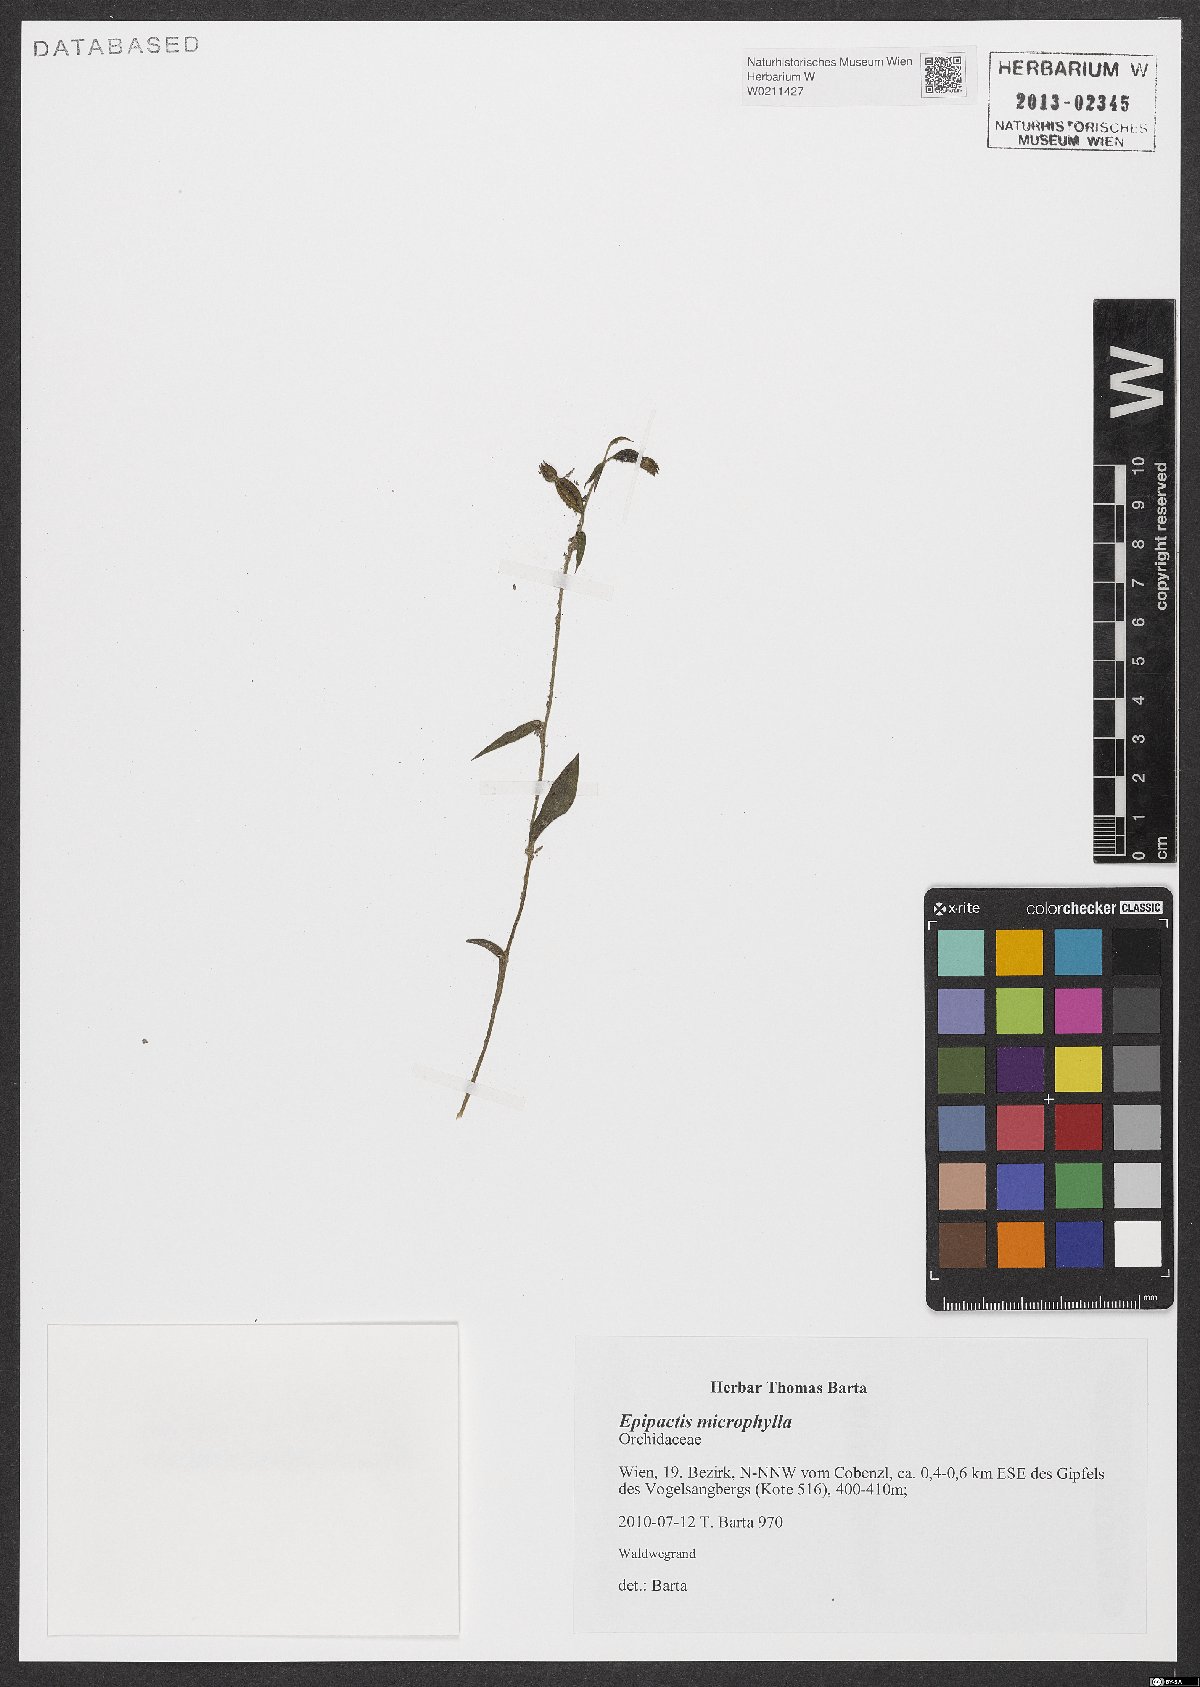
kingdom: Plantae
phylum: Tracheophyta
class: Liliopsida
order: Asparagales
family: Orchidaceae
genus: Epipactis
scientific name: Epipactis microphylla
